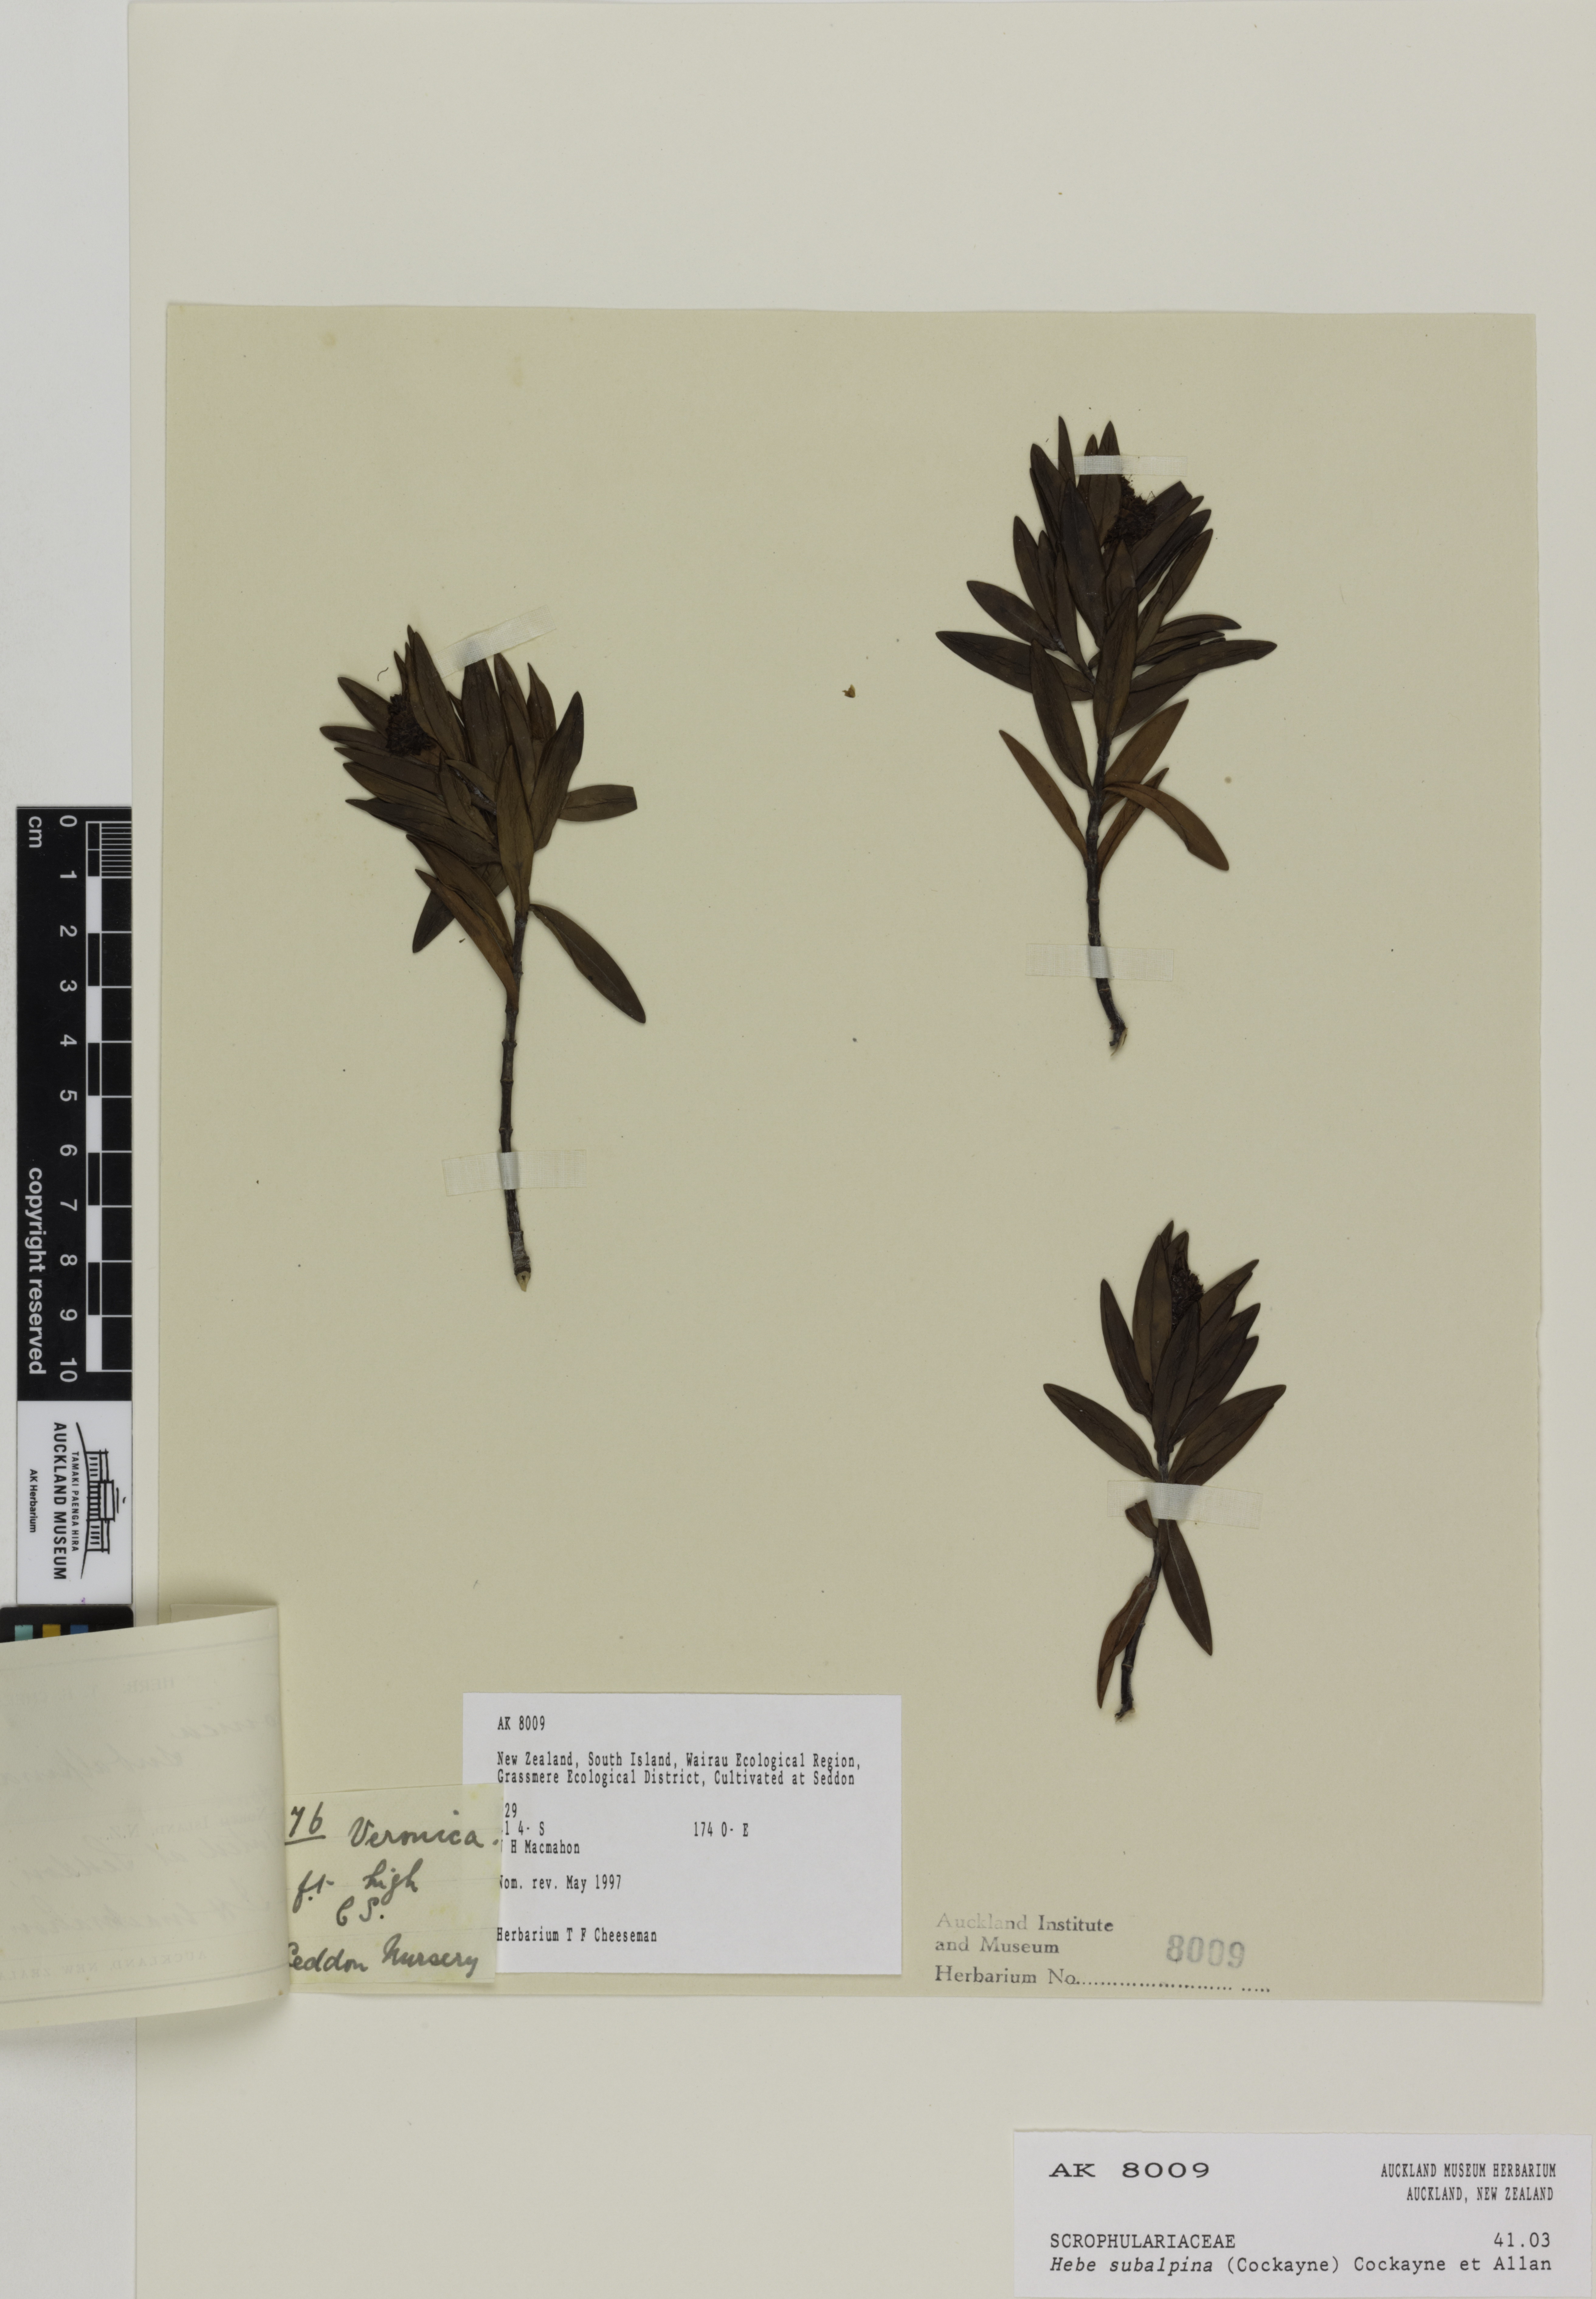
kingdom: Plantae
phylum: Tracheophyta
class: Magnoliopsida
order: Lamiales
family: Plantaginaceae
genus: Veronica
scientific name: Veronica subalpina
